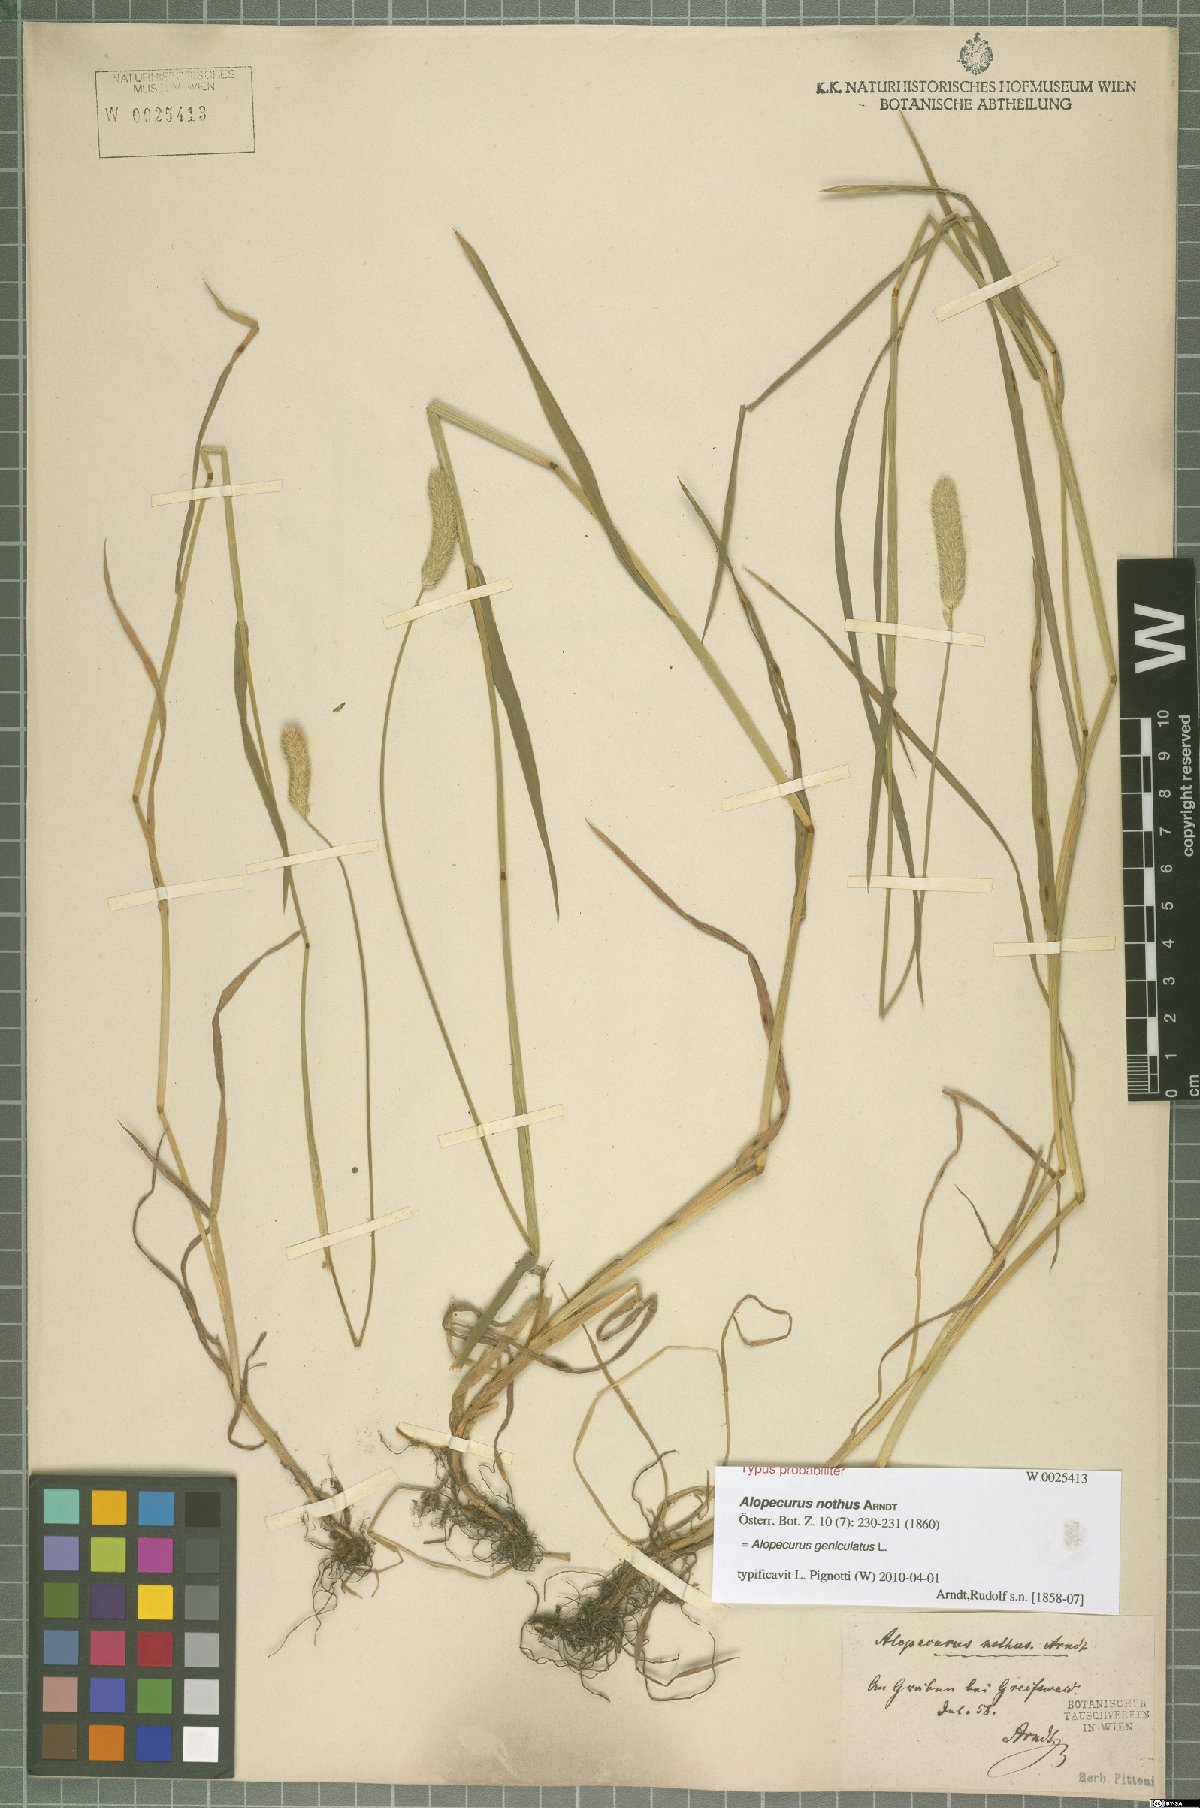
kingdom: Plantae
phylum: Tracheophyta
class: Liliopsida
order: Poales
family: Poaceae
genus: Alopecurus
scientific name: Alopecurus geniculatus
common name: Water foxtail
